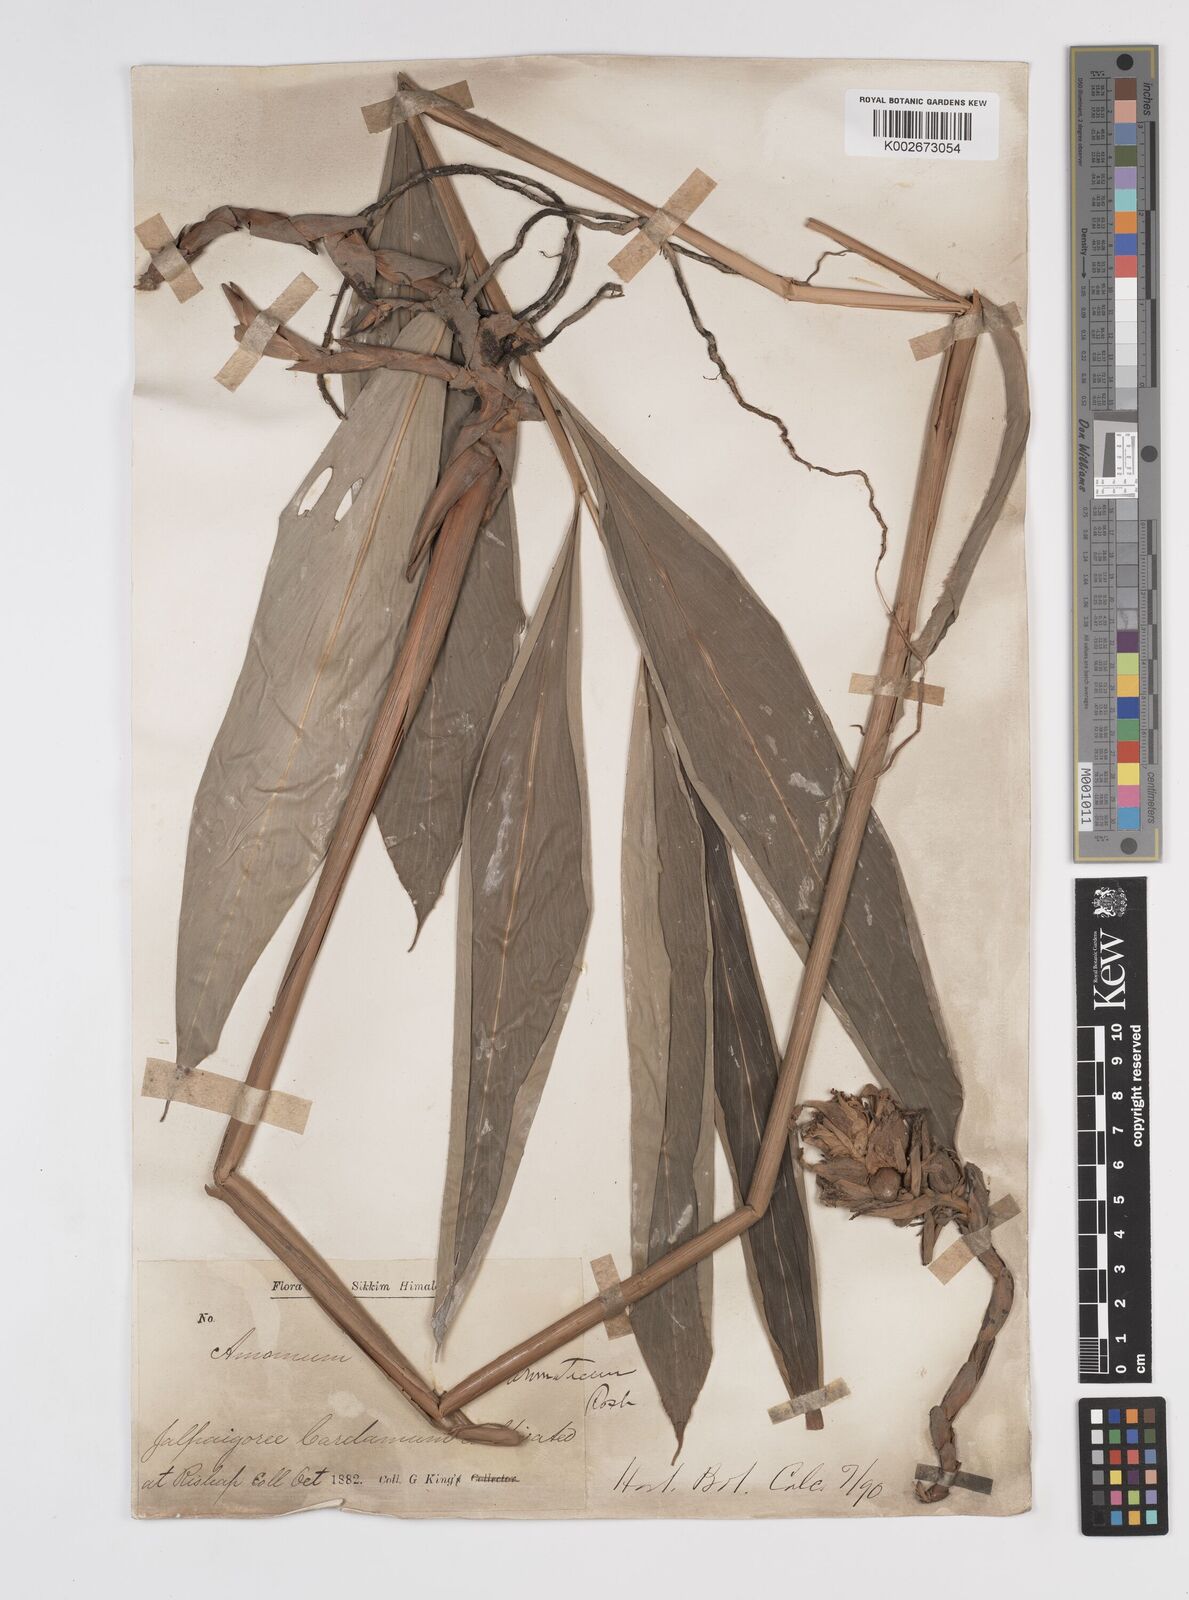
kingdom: Plantae
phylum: Tracheophyta
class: Liliopsida
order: Zingiberales
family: Zingiberaceae
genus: Wurfbainia
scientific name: Wurfbainia aromatica
